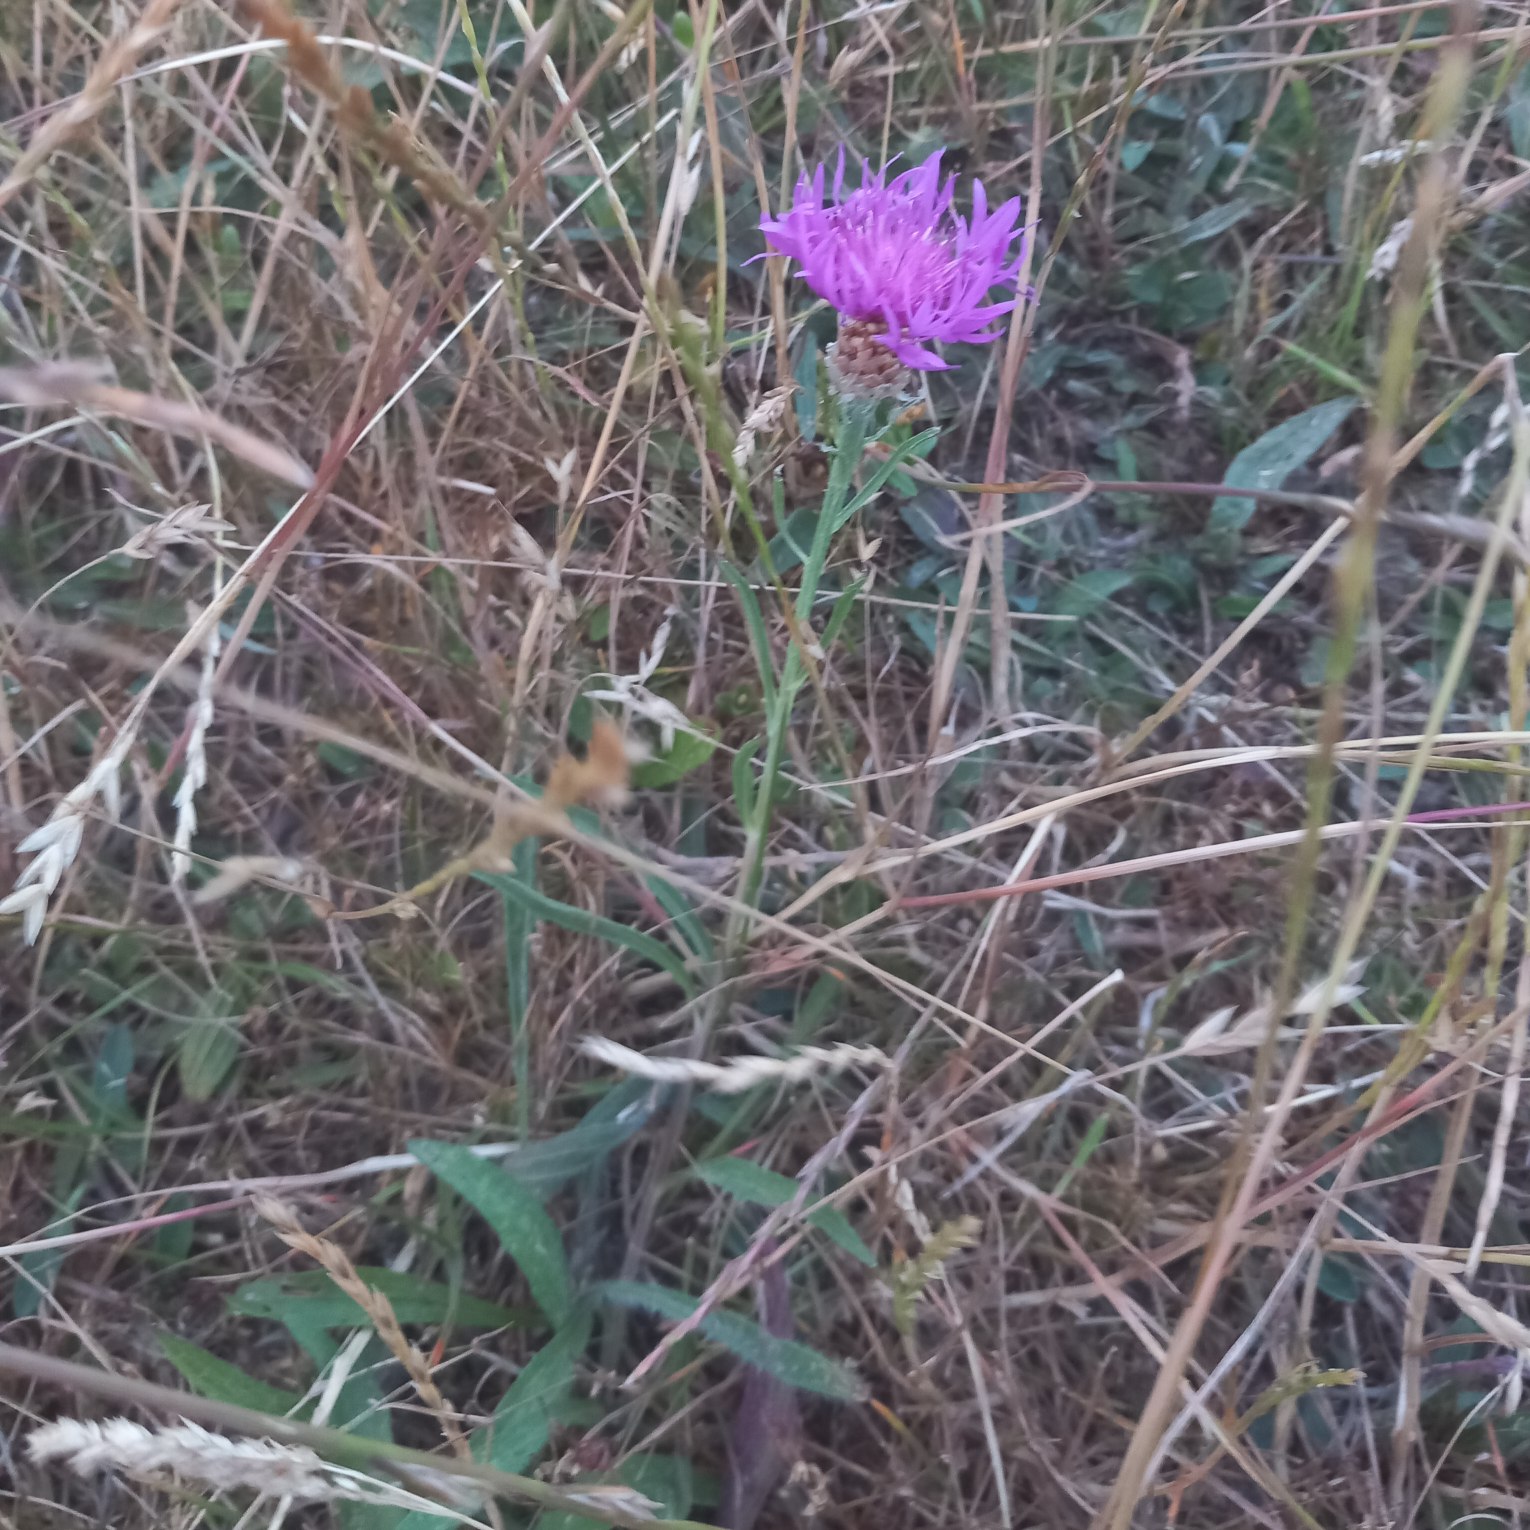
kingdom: Plantae
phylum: Tracheophyta
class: Magnoliopsida
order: Asterales
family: Asteraceae
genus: Centaurea
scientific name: Centaurea jacea
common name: Almindelig knopurt
